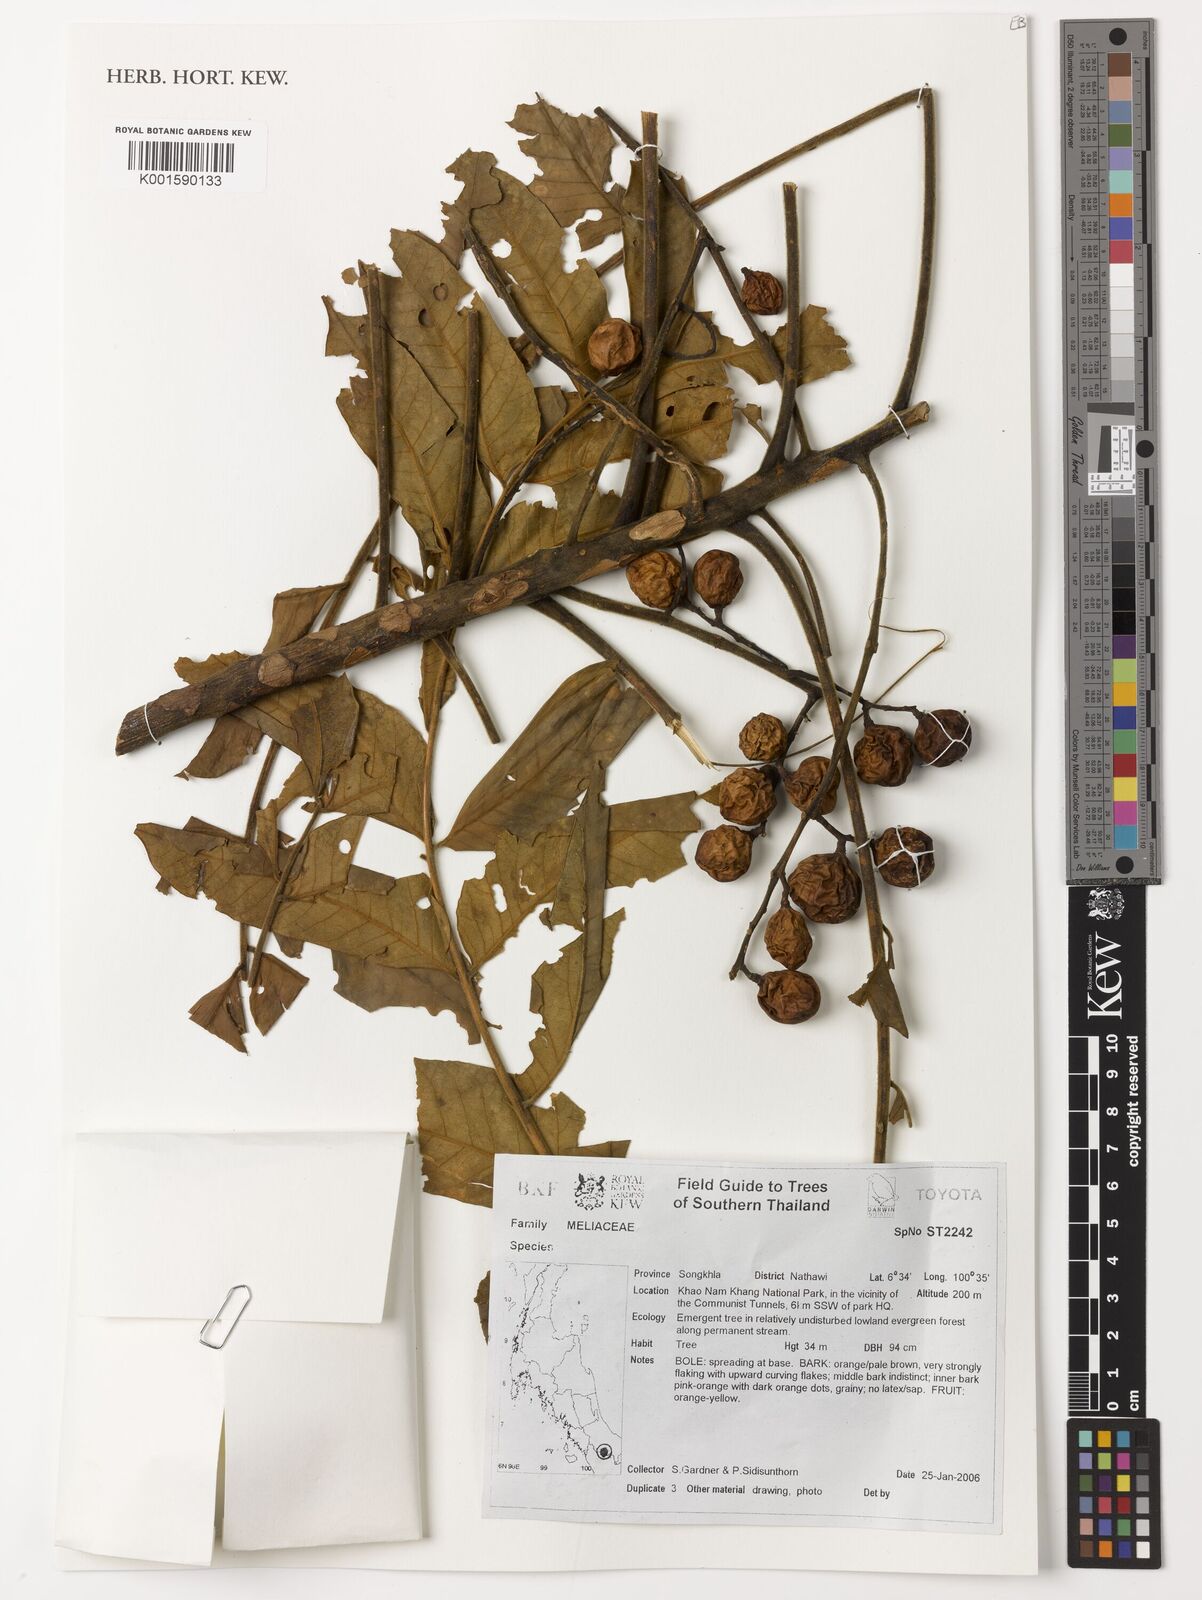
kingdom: Plantae
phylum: Tracheophyta
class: Magnoliopsida
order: Sapindales
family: Meliaceae
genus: Didymocheton
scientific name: Didymocheton
